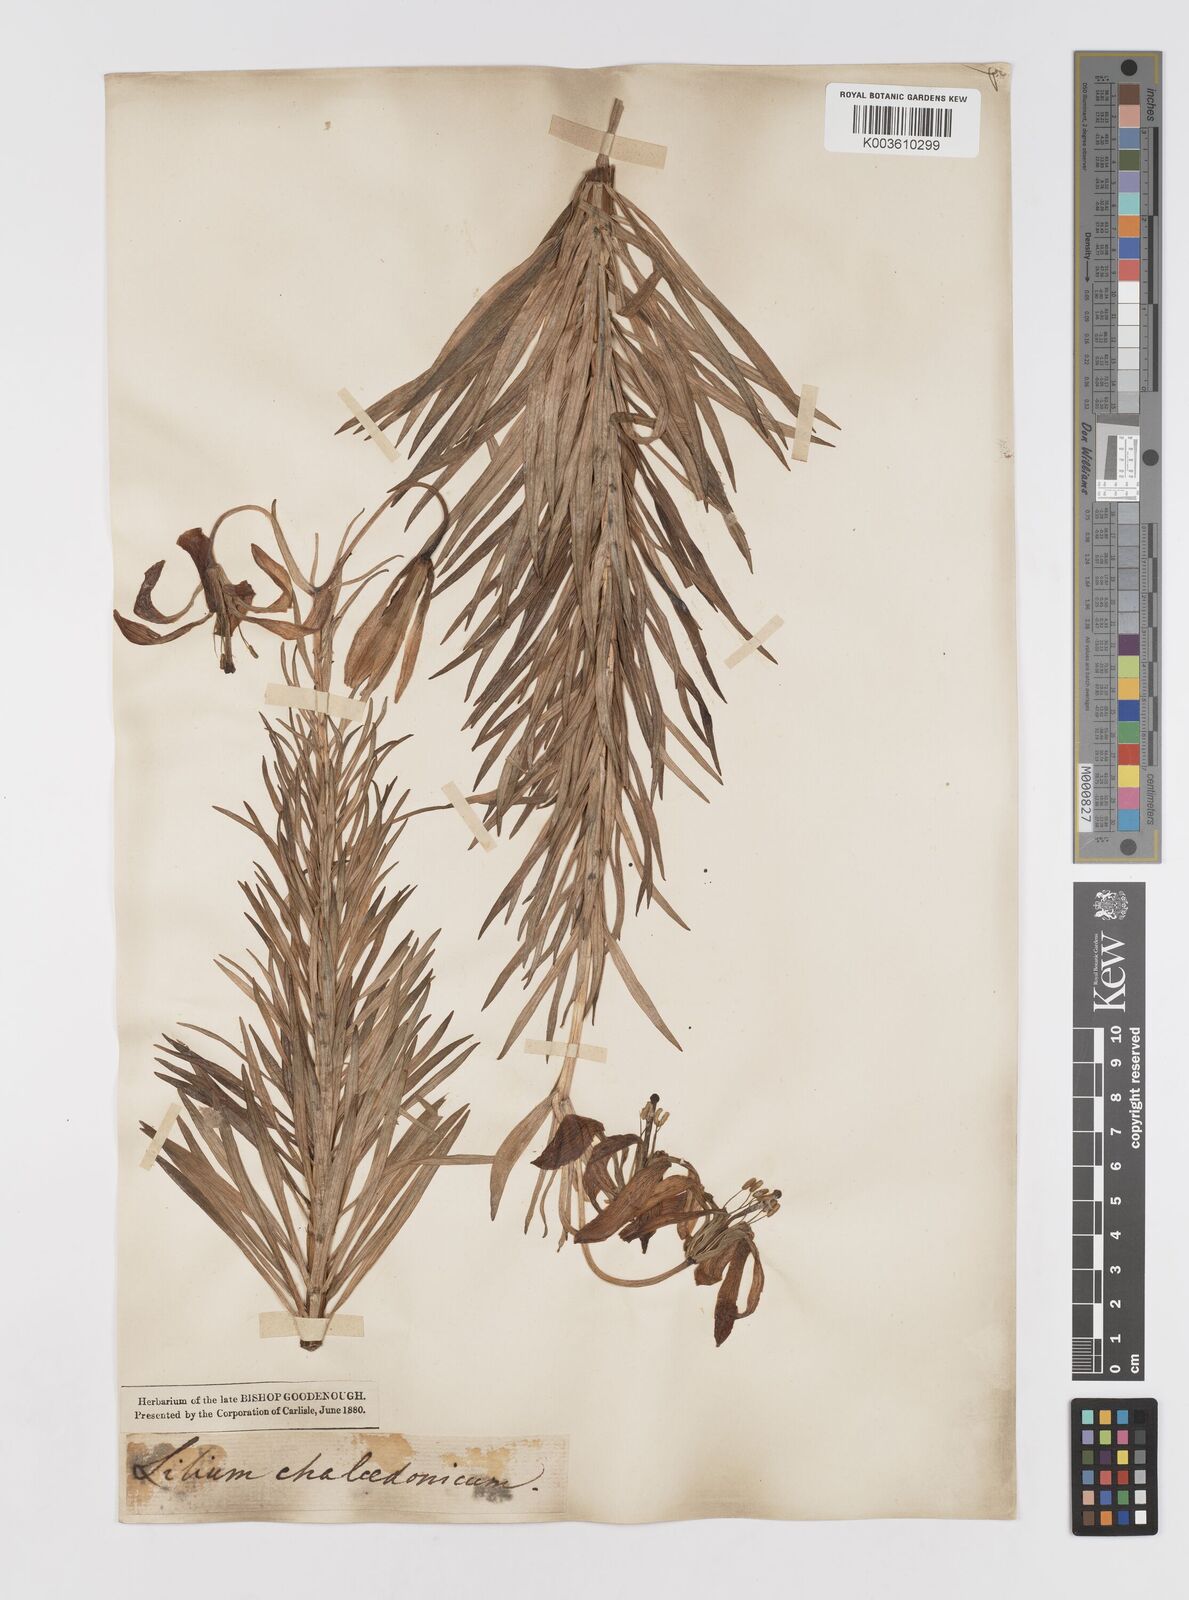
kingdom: Plantae
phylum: Tracheophyta
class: Liliopsida
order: Liliales
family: Liliaceae
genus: Lilium
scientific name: Lilium chalcedonicum
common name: Red martagon of constantinople
